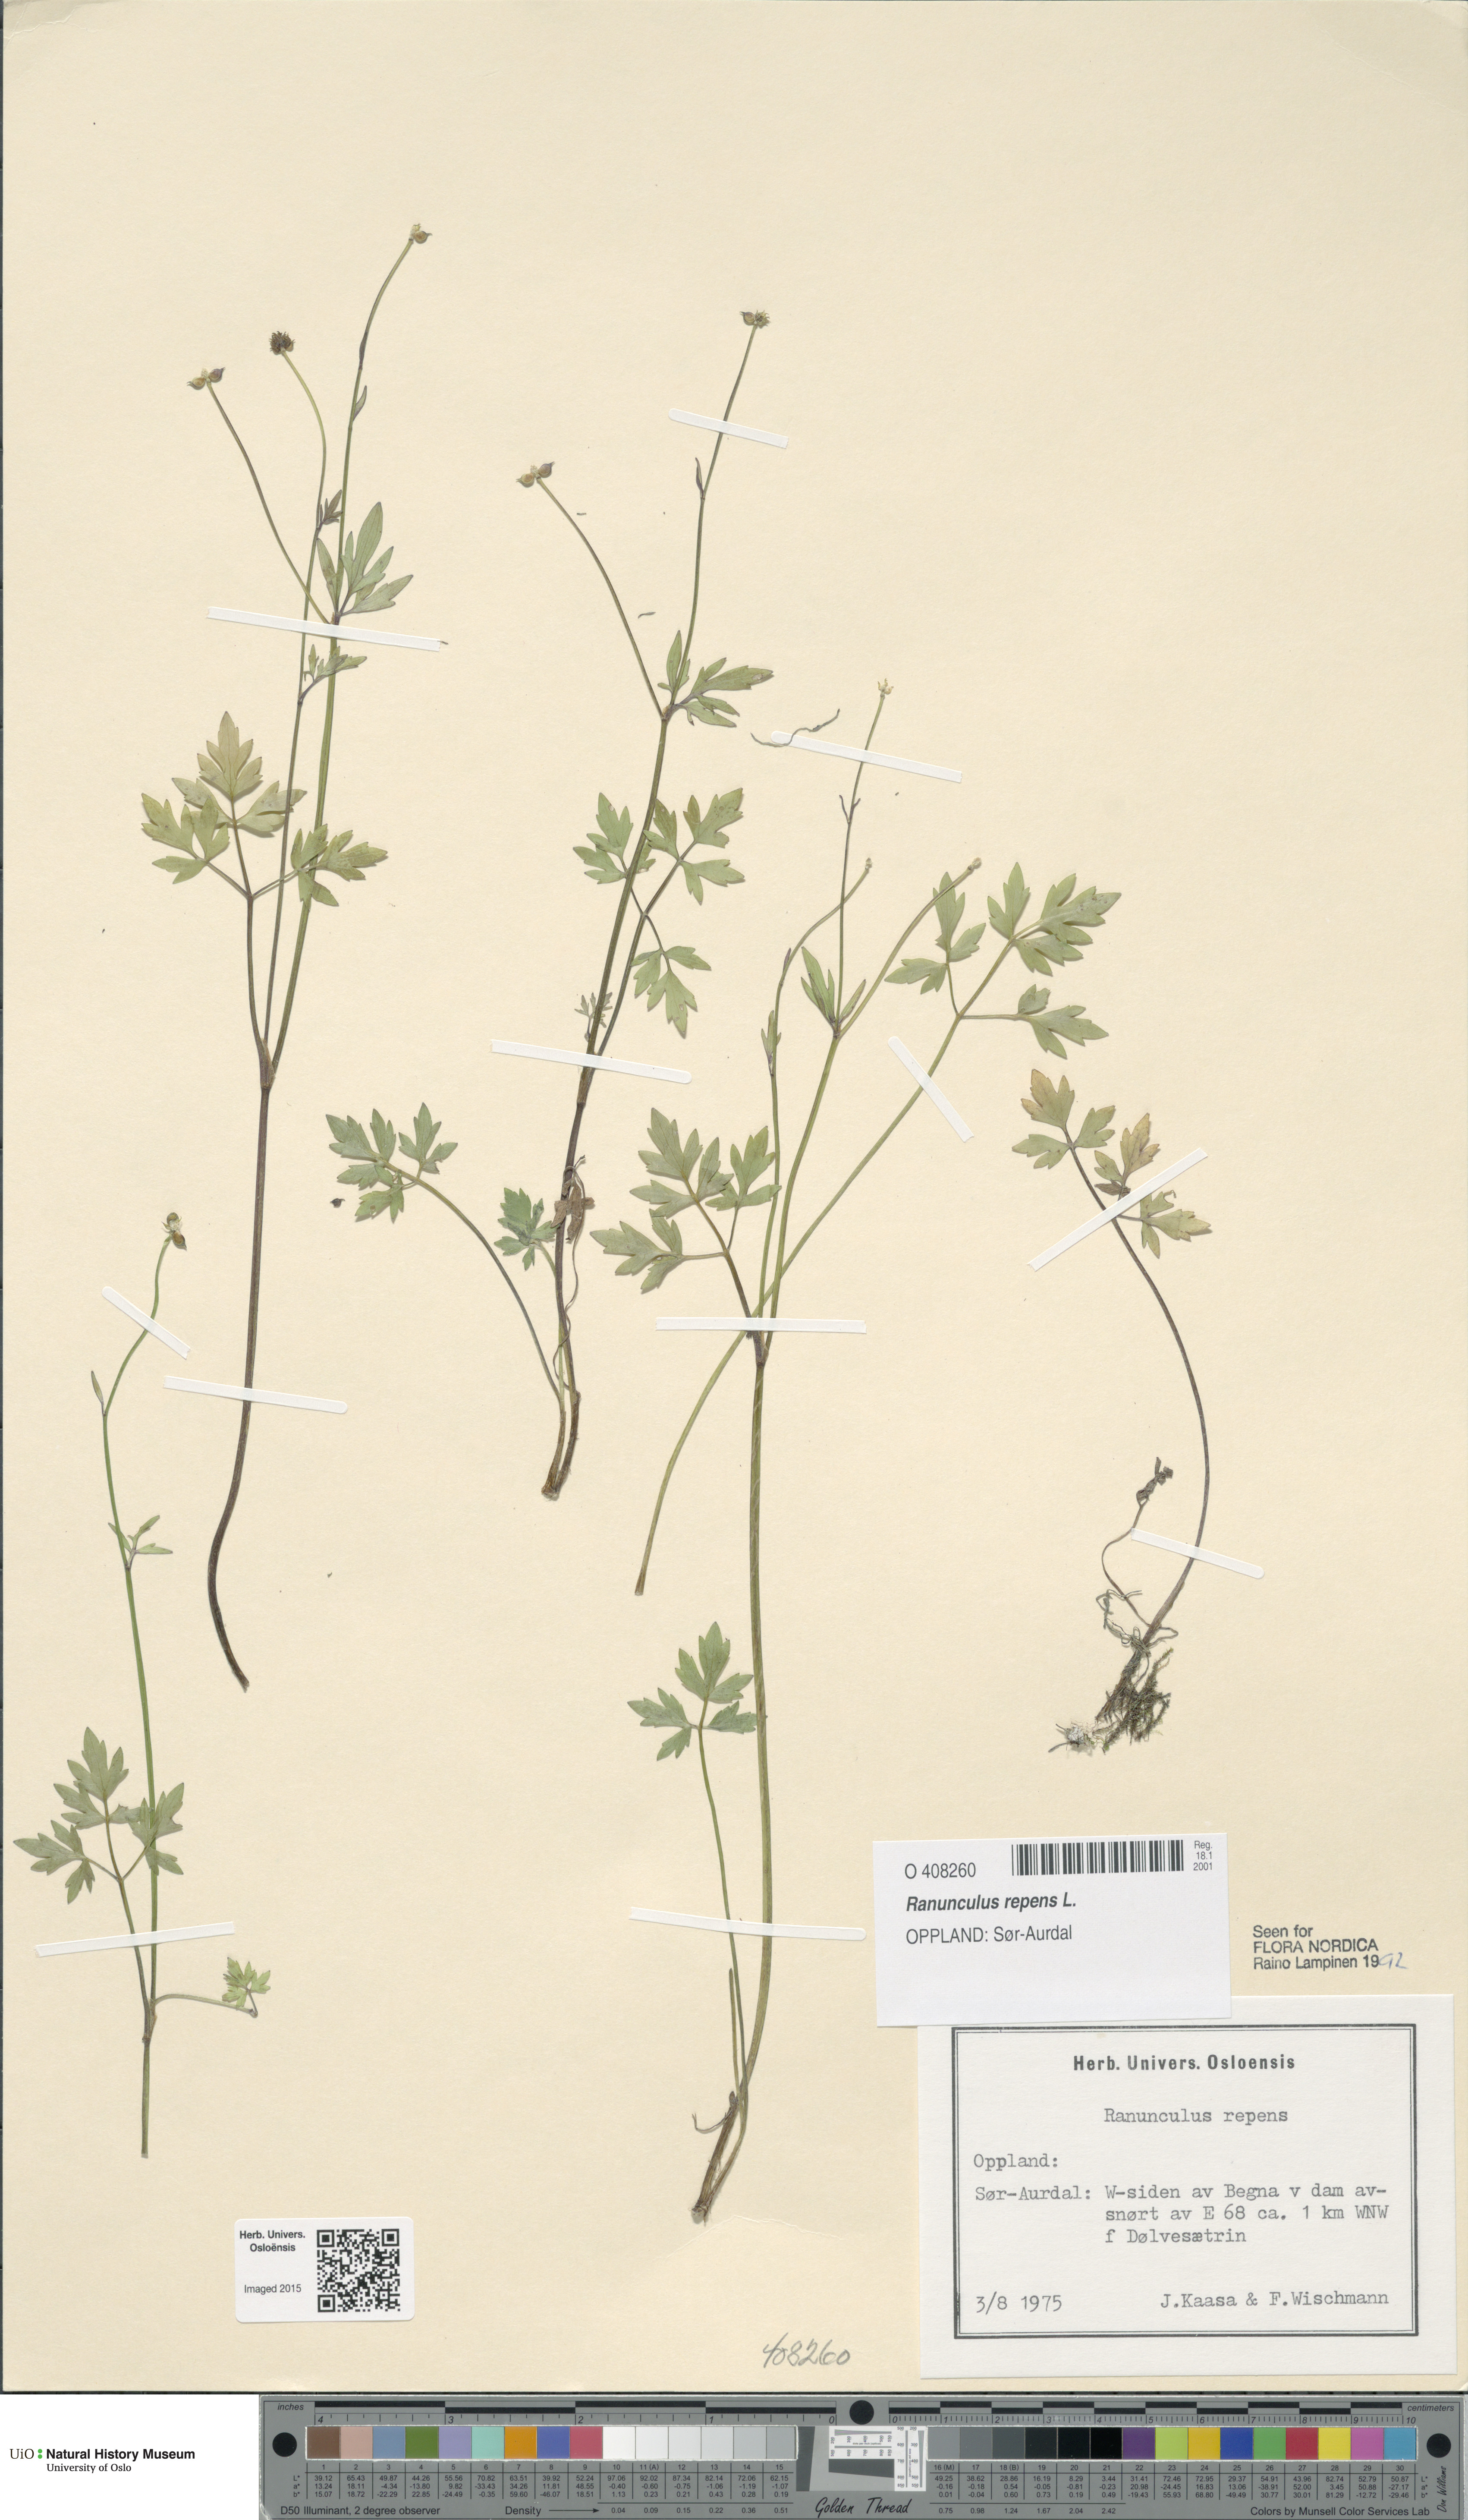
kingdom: Plantae
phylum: Tracheophyta
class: Magnoliopsida
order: Ranunculales
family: Ranunculaceae
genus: Ranunculus
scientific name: Ranunculus repens
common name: Creeping buttercup
